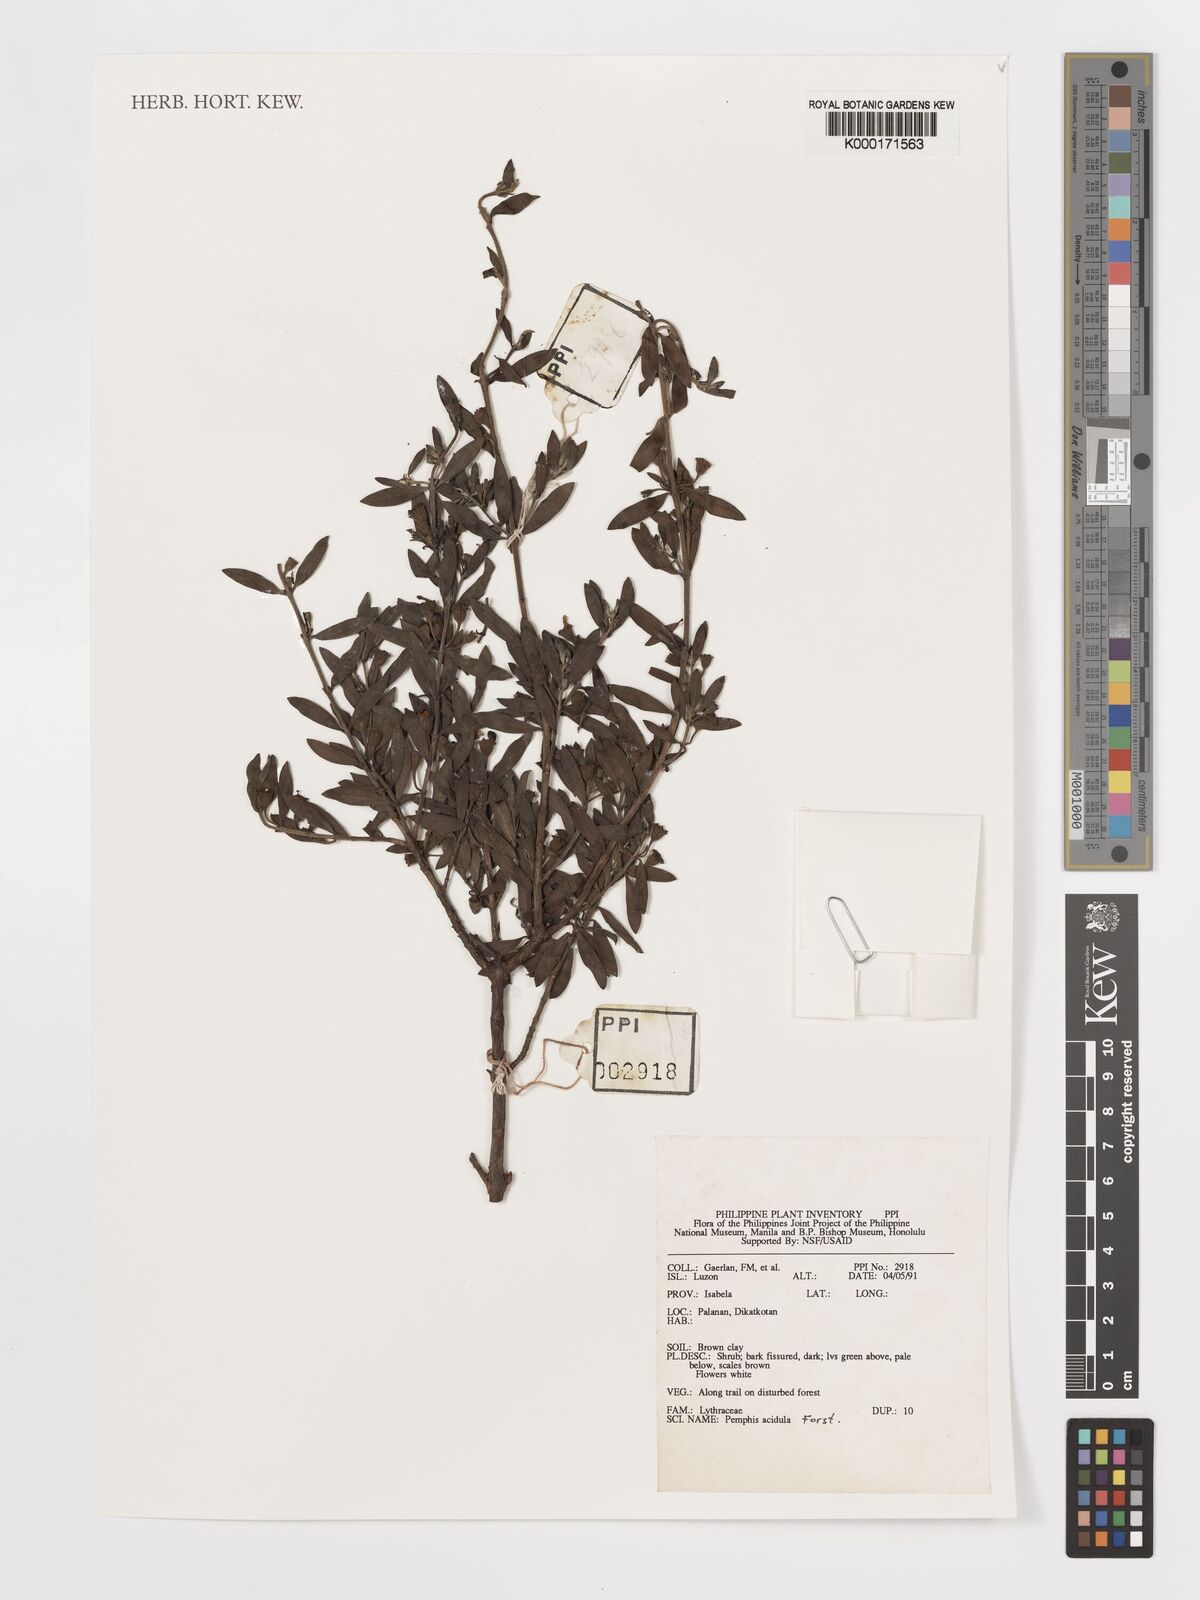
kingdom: Plantae
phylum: Tracheophyta
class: Magnoliopsida
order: Myrtales
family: Lythraceae
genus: Pemphis
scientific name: Pemphis acidula
